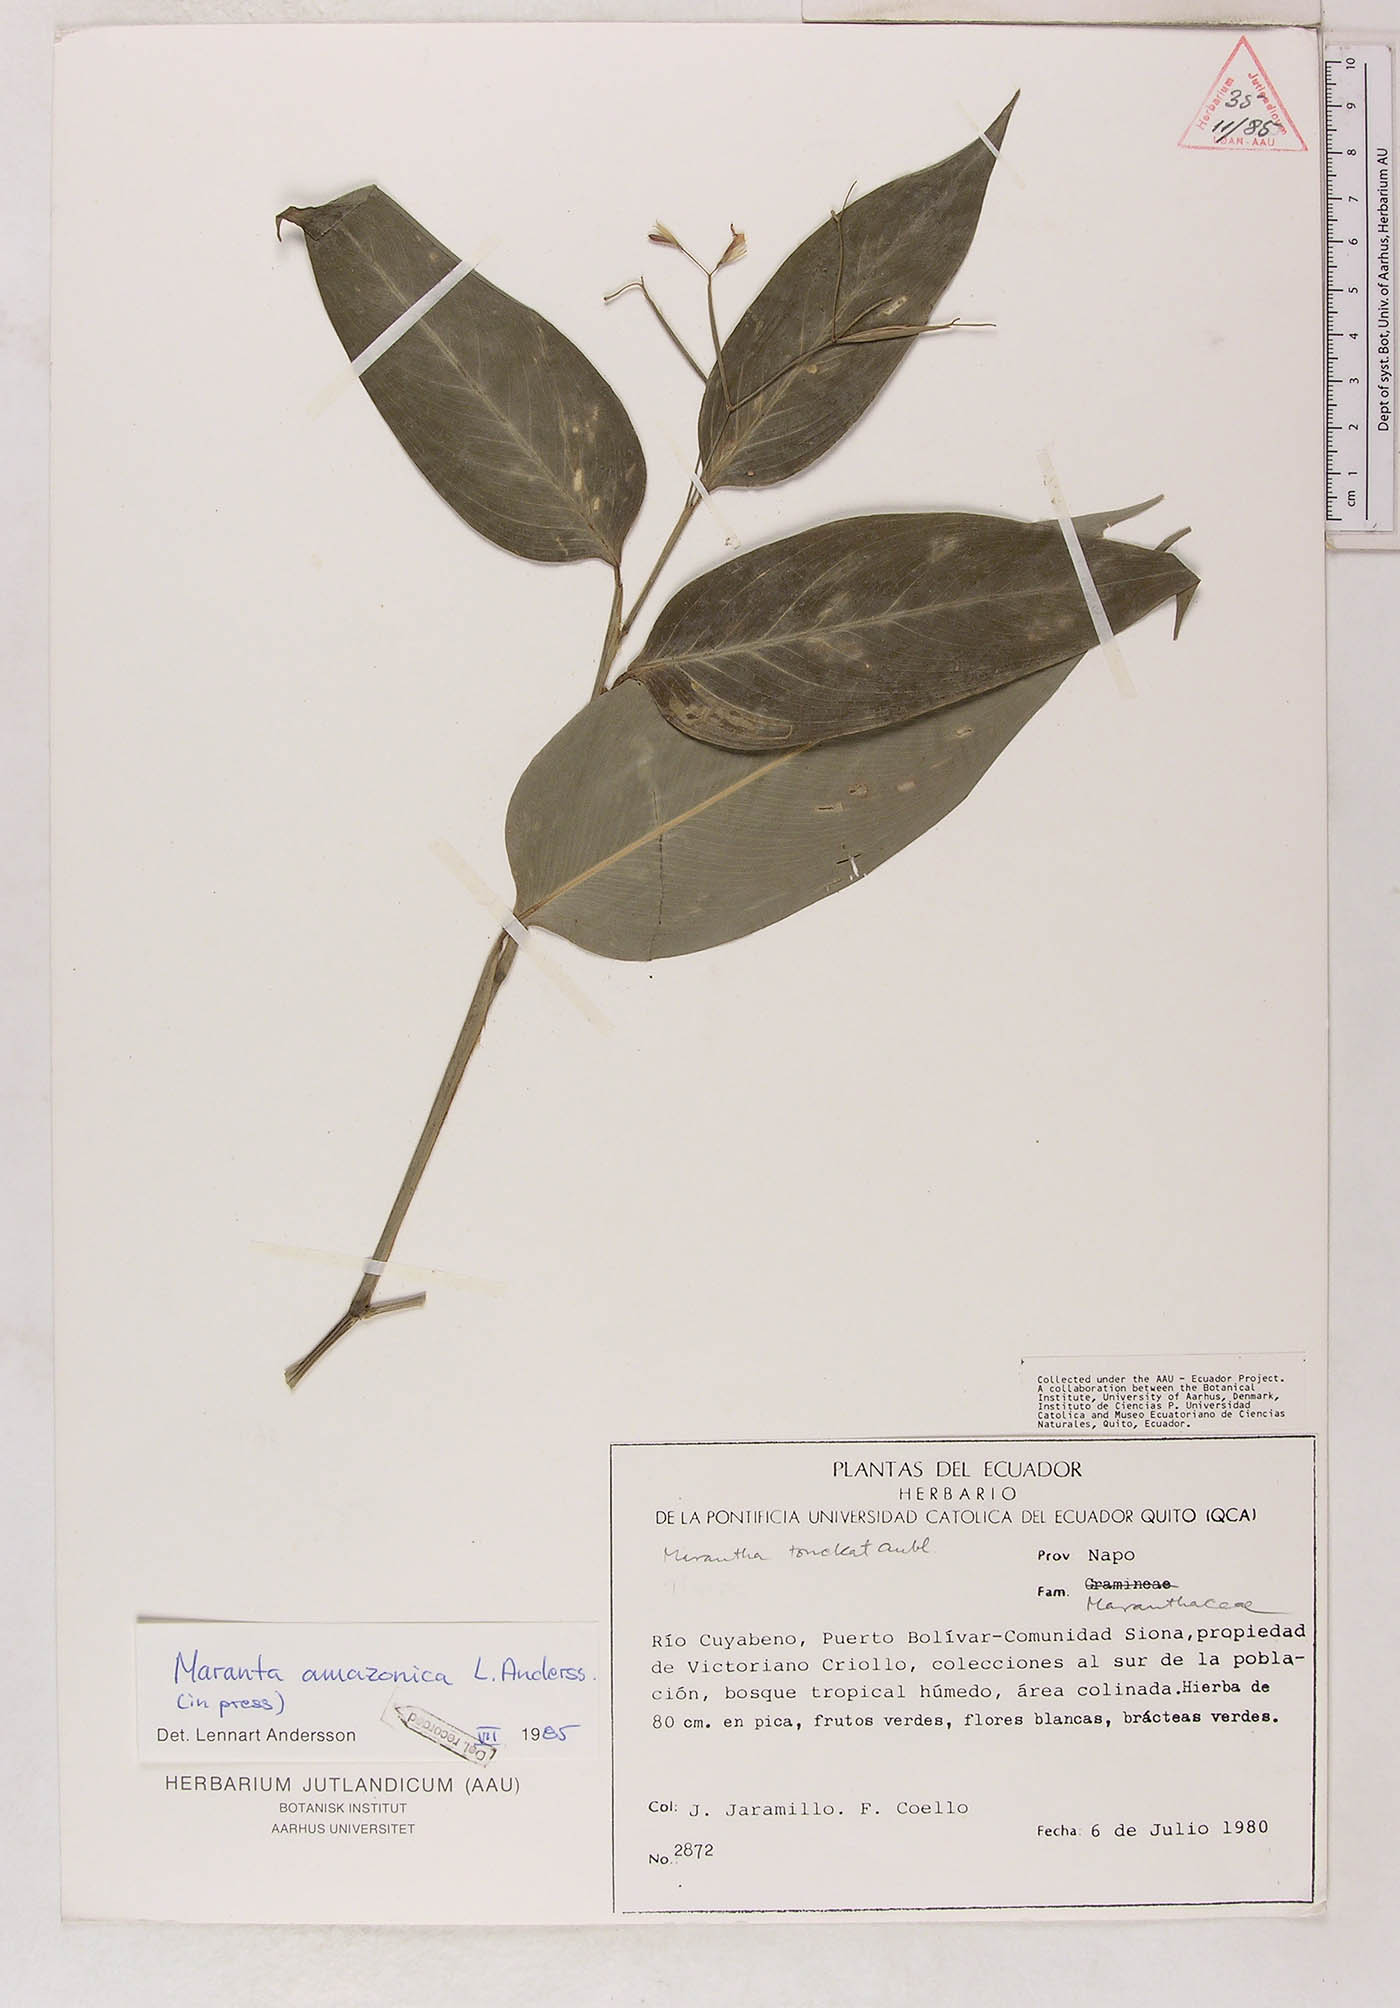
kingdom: Plantae
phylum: Tracheophyta
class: Liliopsida
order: Zingiberales
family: Marantaceae
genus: Maranta
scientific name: Maranta amazonica
